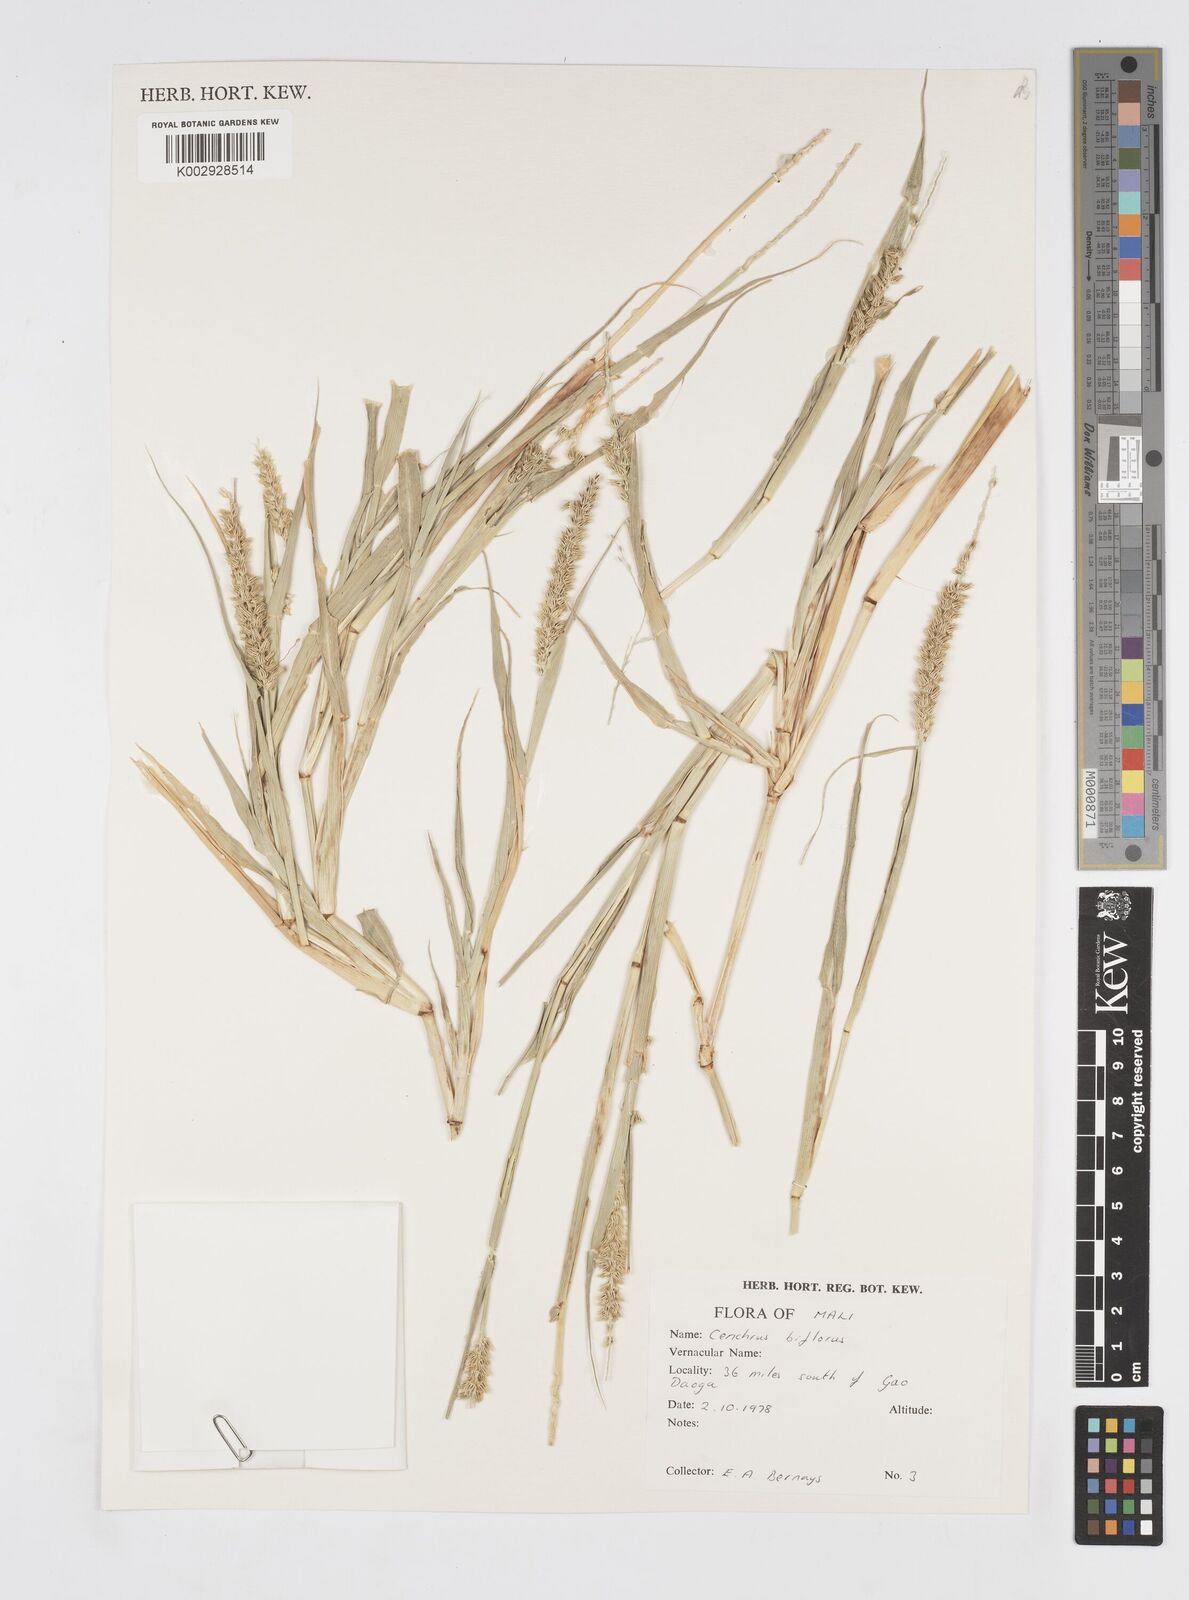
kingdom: Plantae
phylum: Tracheophyta
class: Liliopsida
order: Poales
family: Poaceae
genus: Cenchrus
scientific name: Cenchrus biflorus
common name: Indian sandbur
